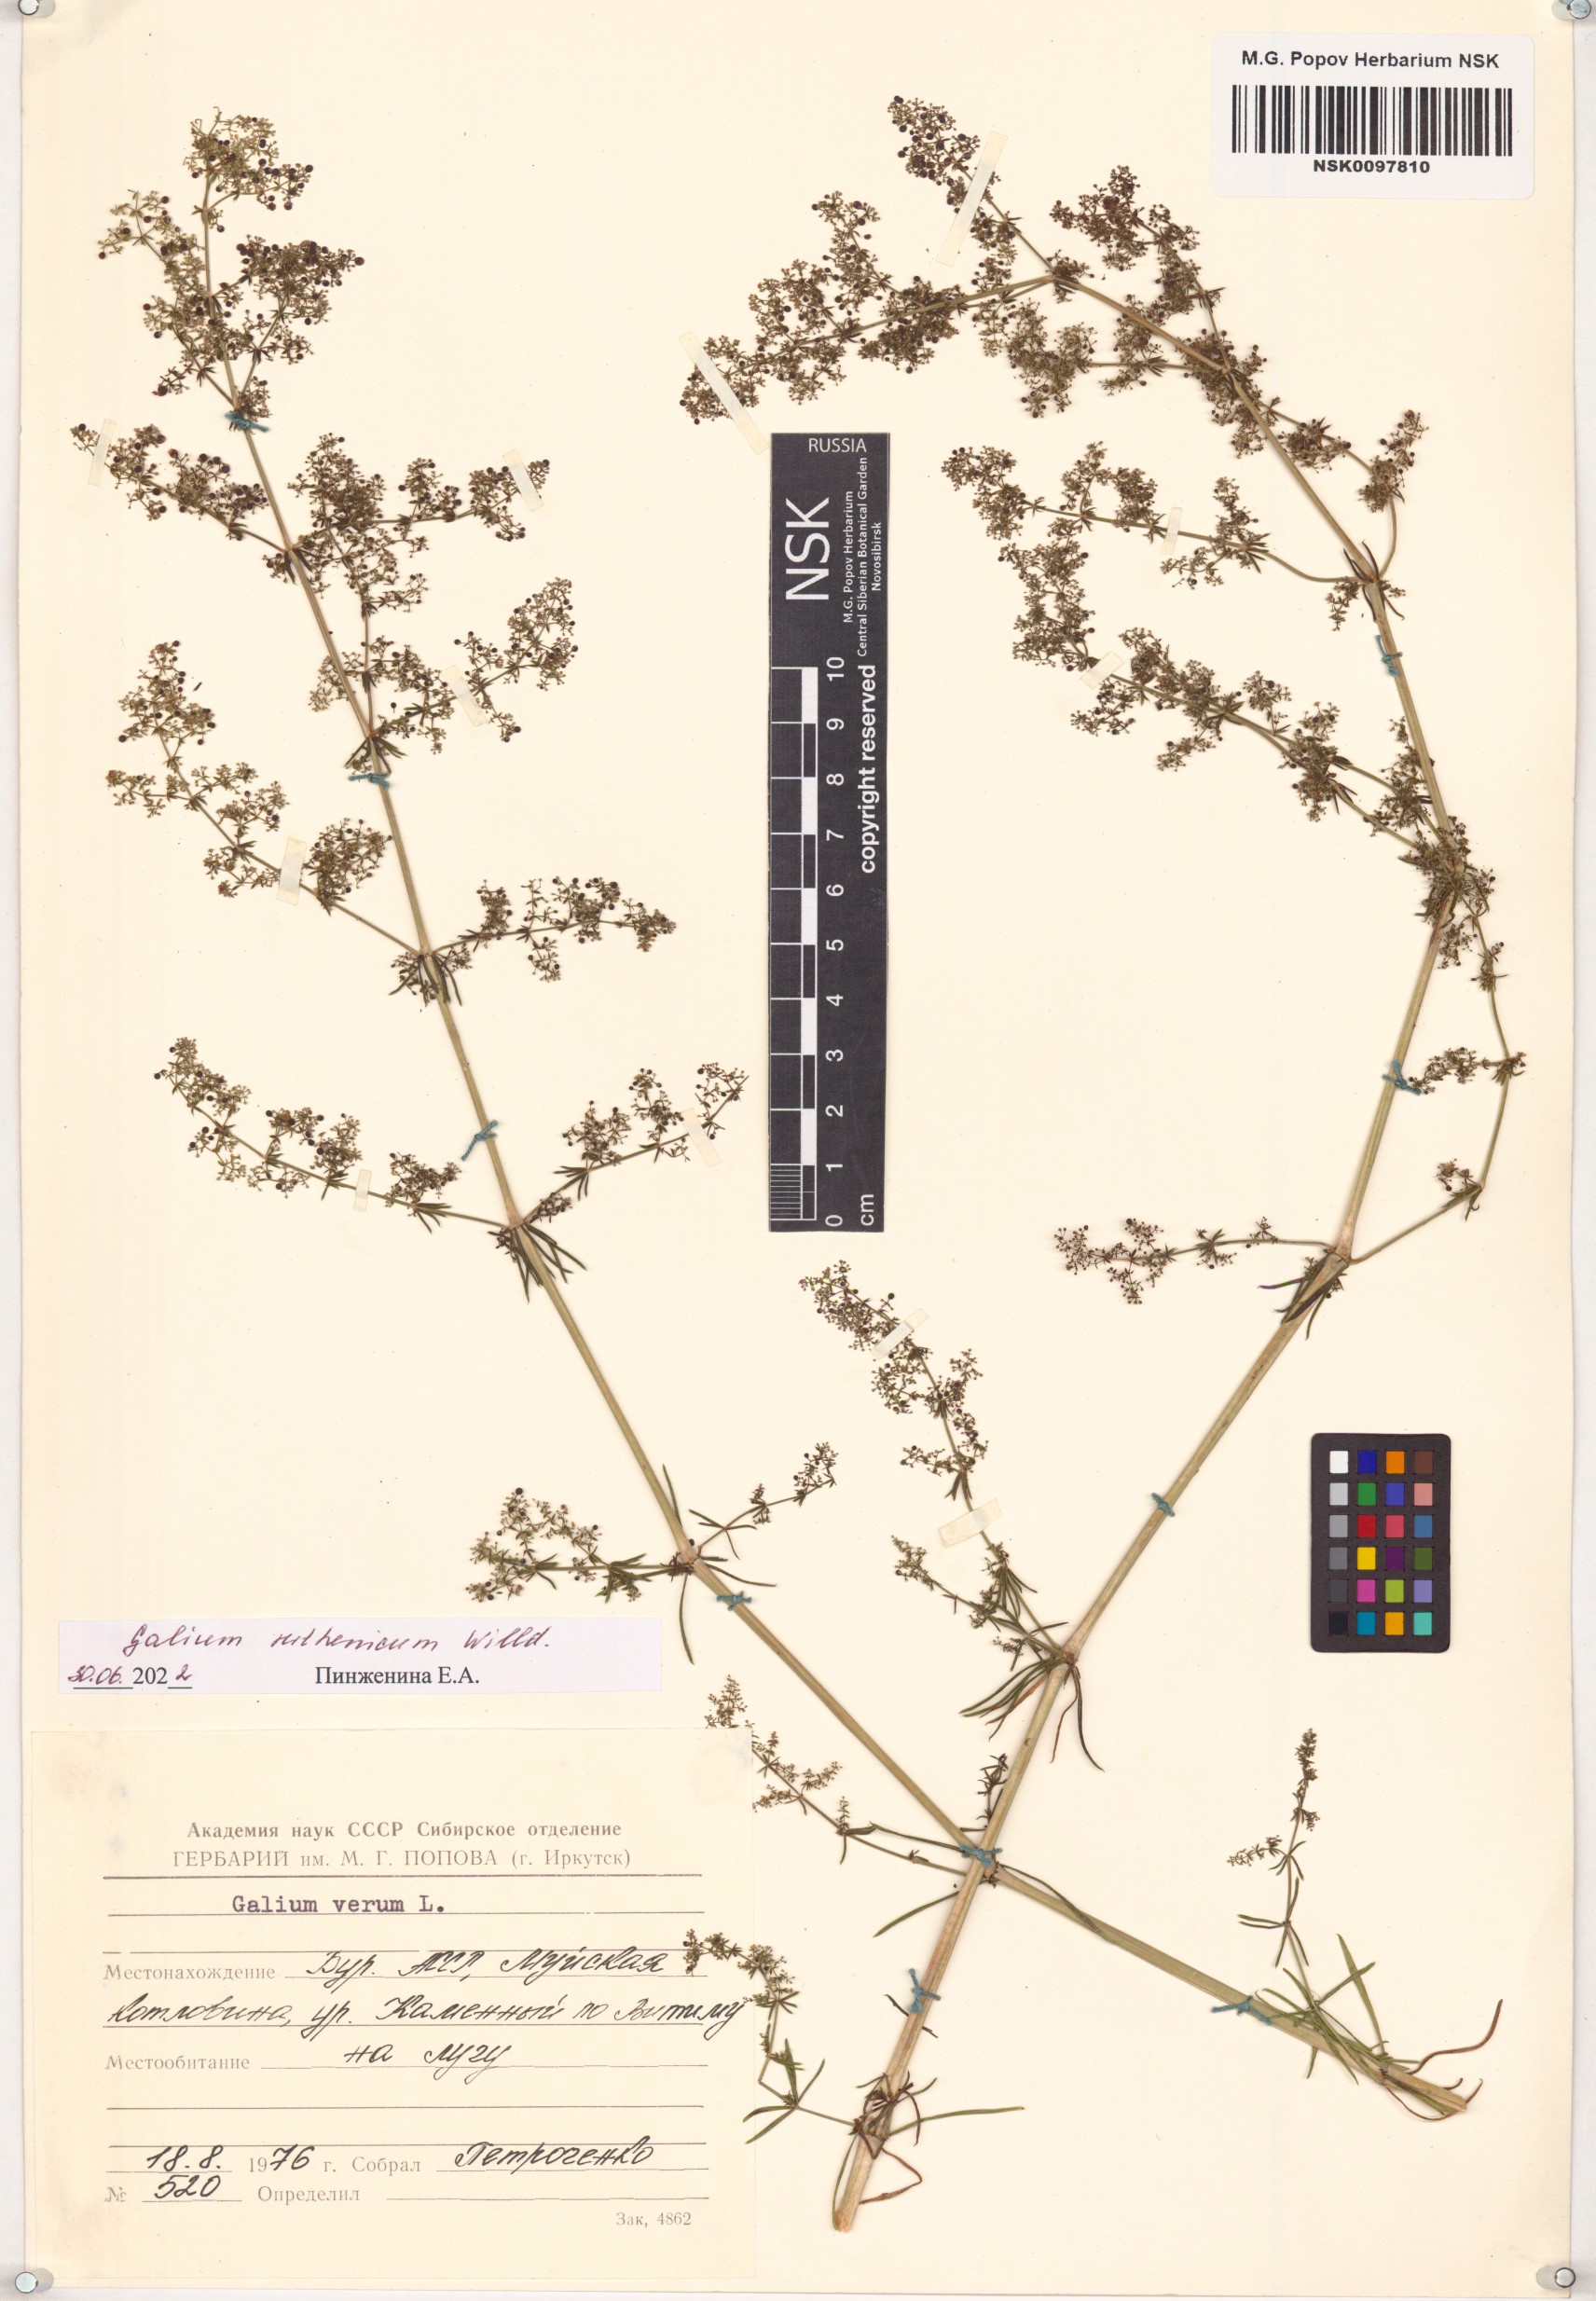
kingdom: Plantae
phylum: Tracheophyta
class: Magnoliopsida
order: Gentianales
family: Rubiaceae
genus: Galium
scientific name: Galium verum
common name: Lady's bedstraw
